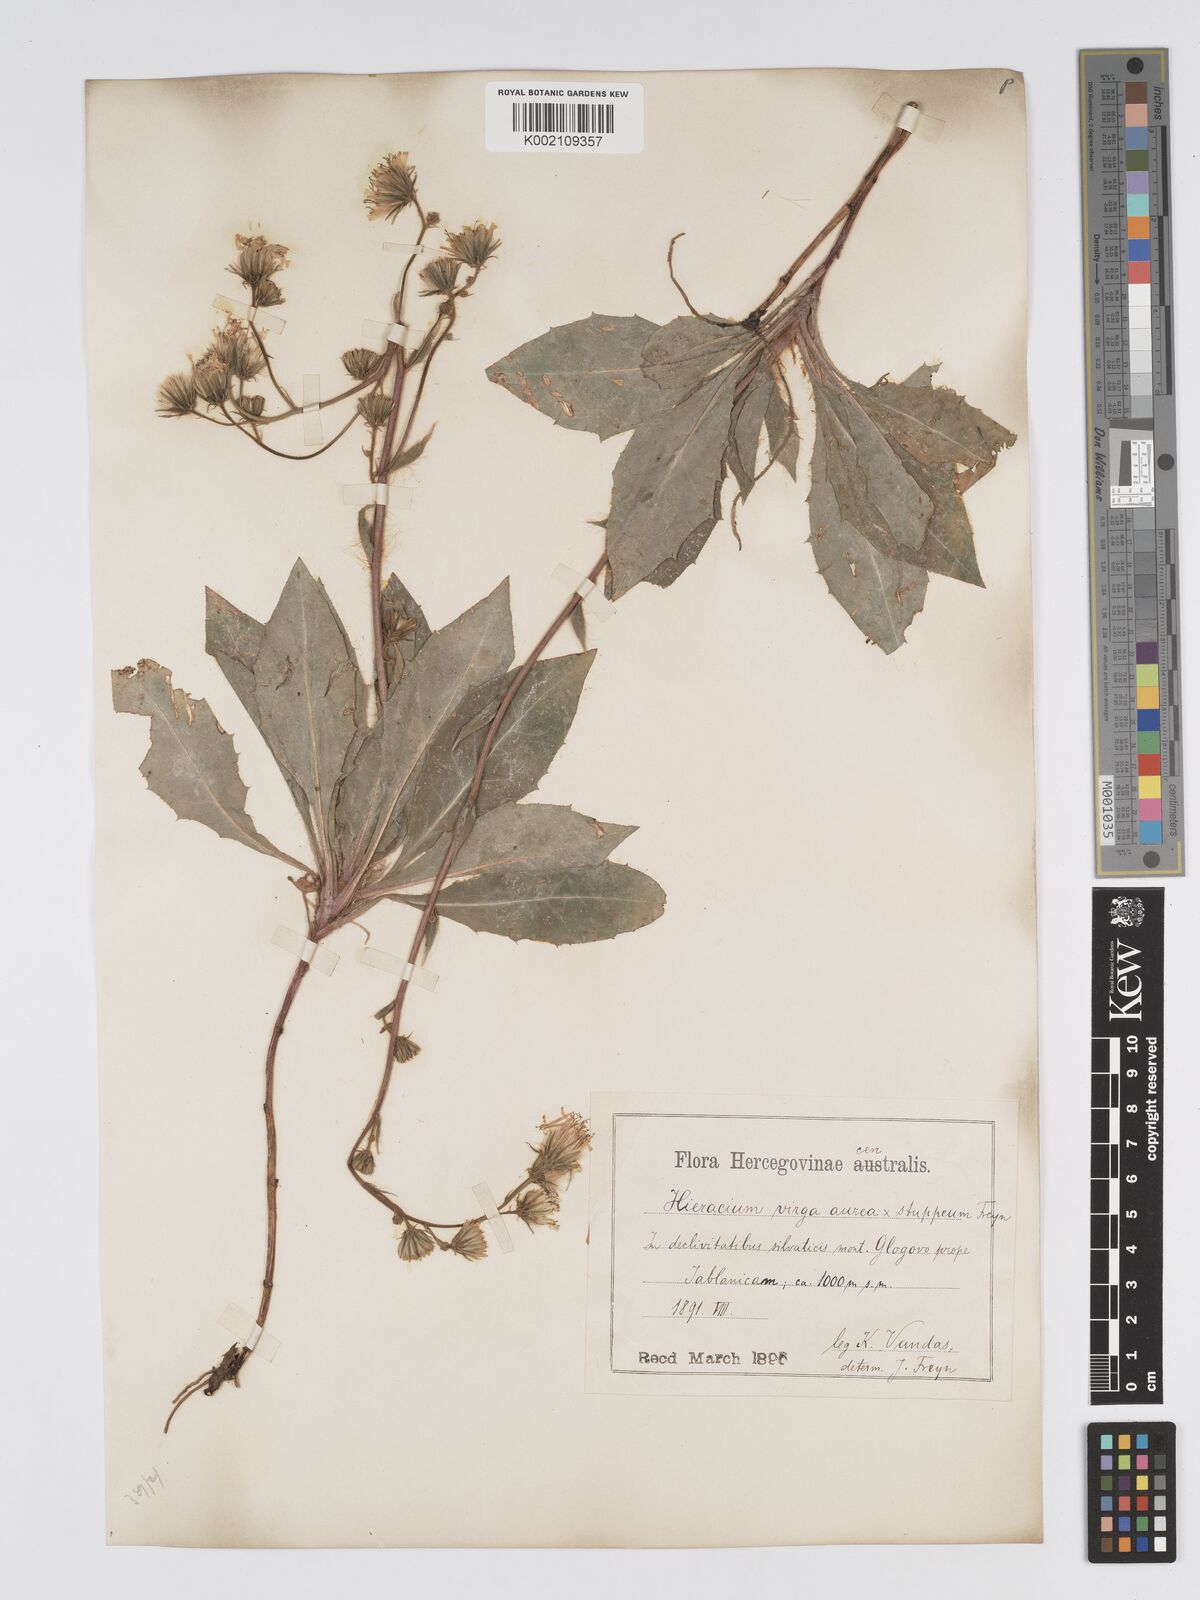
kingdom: Plantae
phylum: Tracheophyta
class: Magnoliopsida
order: Asterales
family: Asteraceae
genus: Hieracium
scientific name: Hieracium bjeluschae
